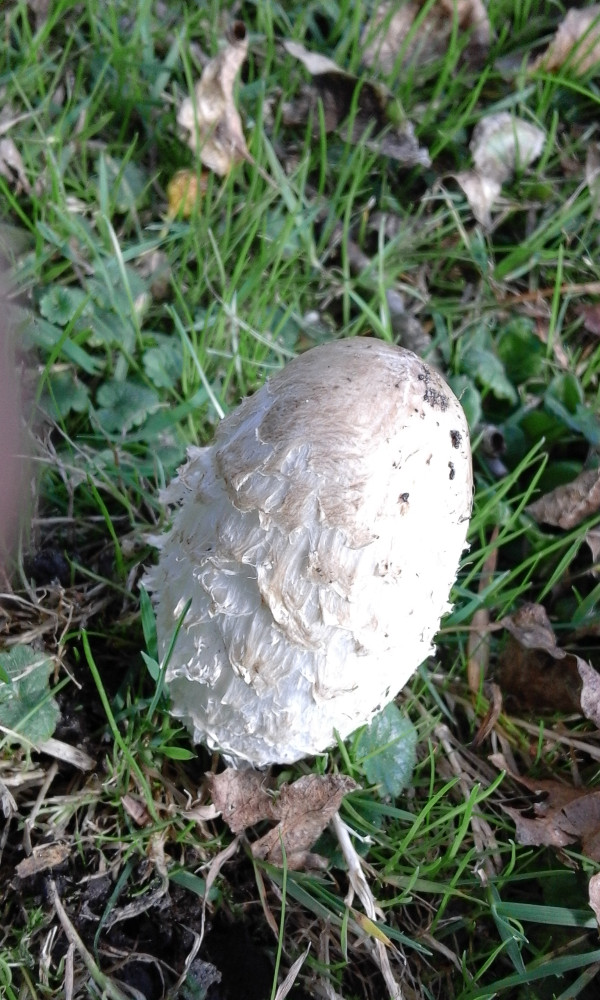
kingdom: Fungi
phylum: Basidiomycota
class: Agaricomycetes
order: Agaricales
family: Agaricaceae
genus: Coprinus
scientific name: Coprinus comatus
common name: stor parykhat
